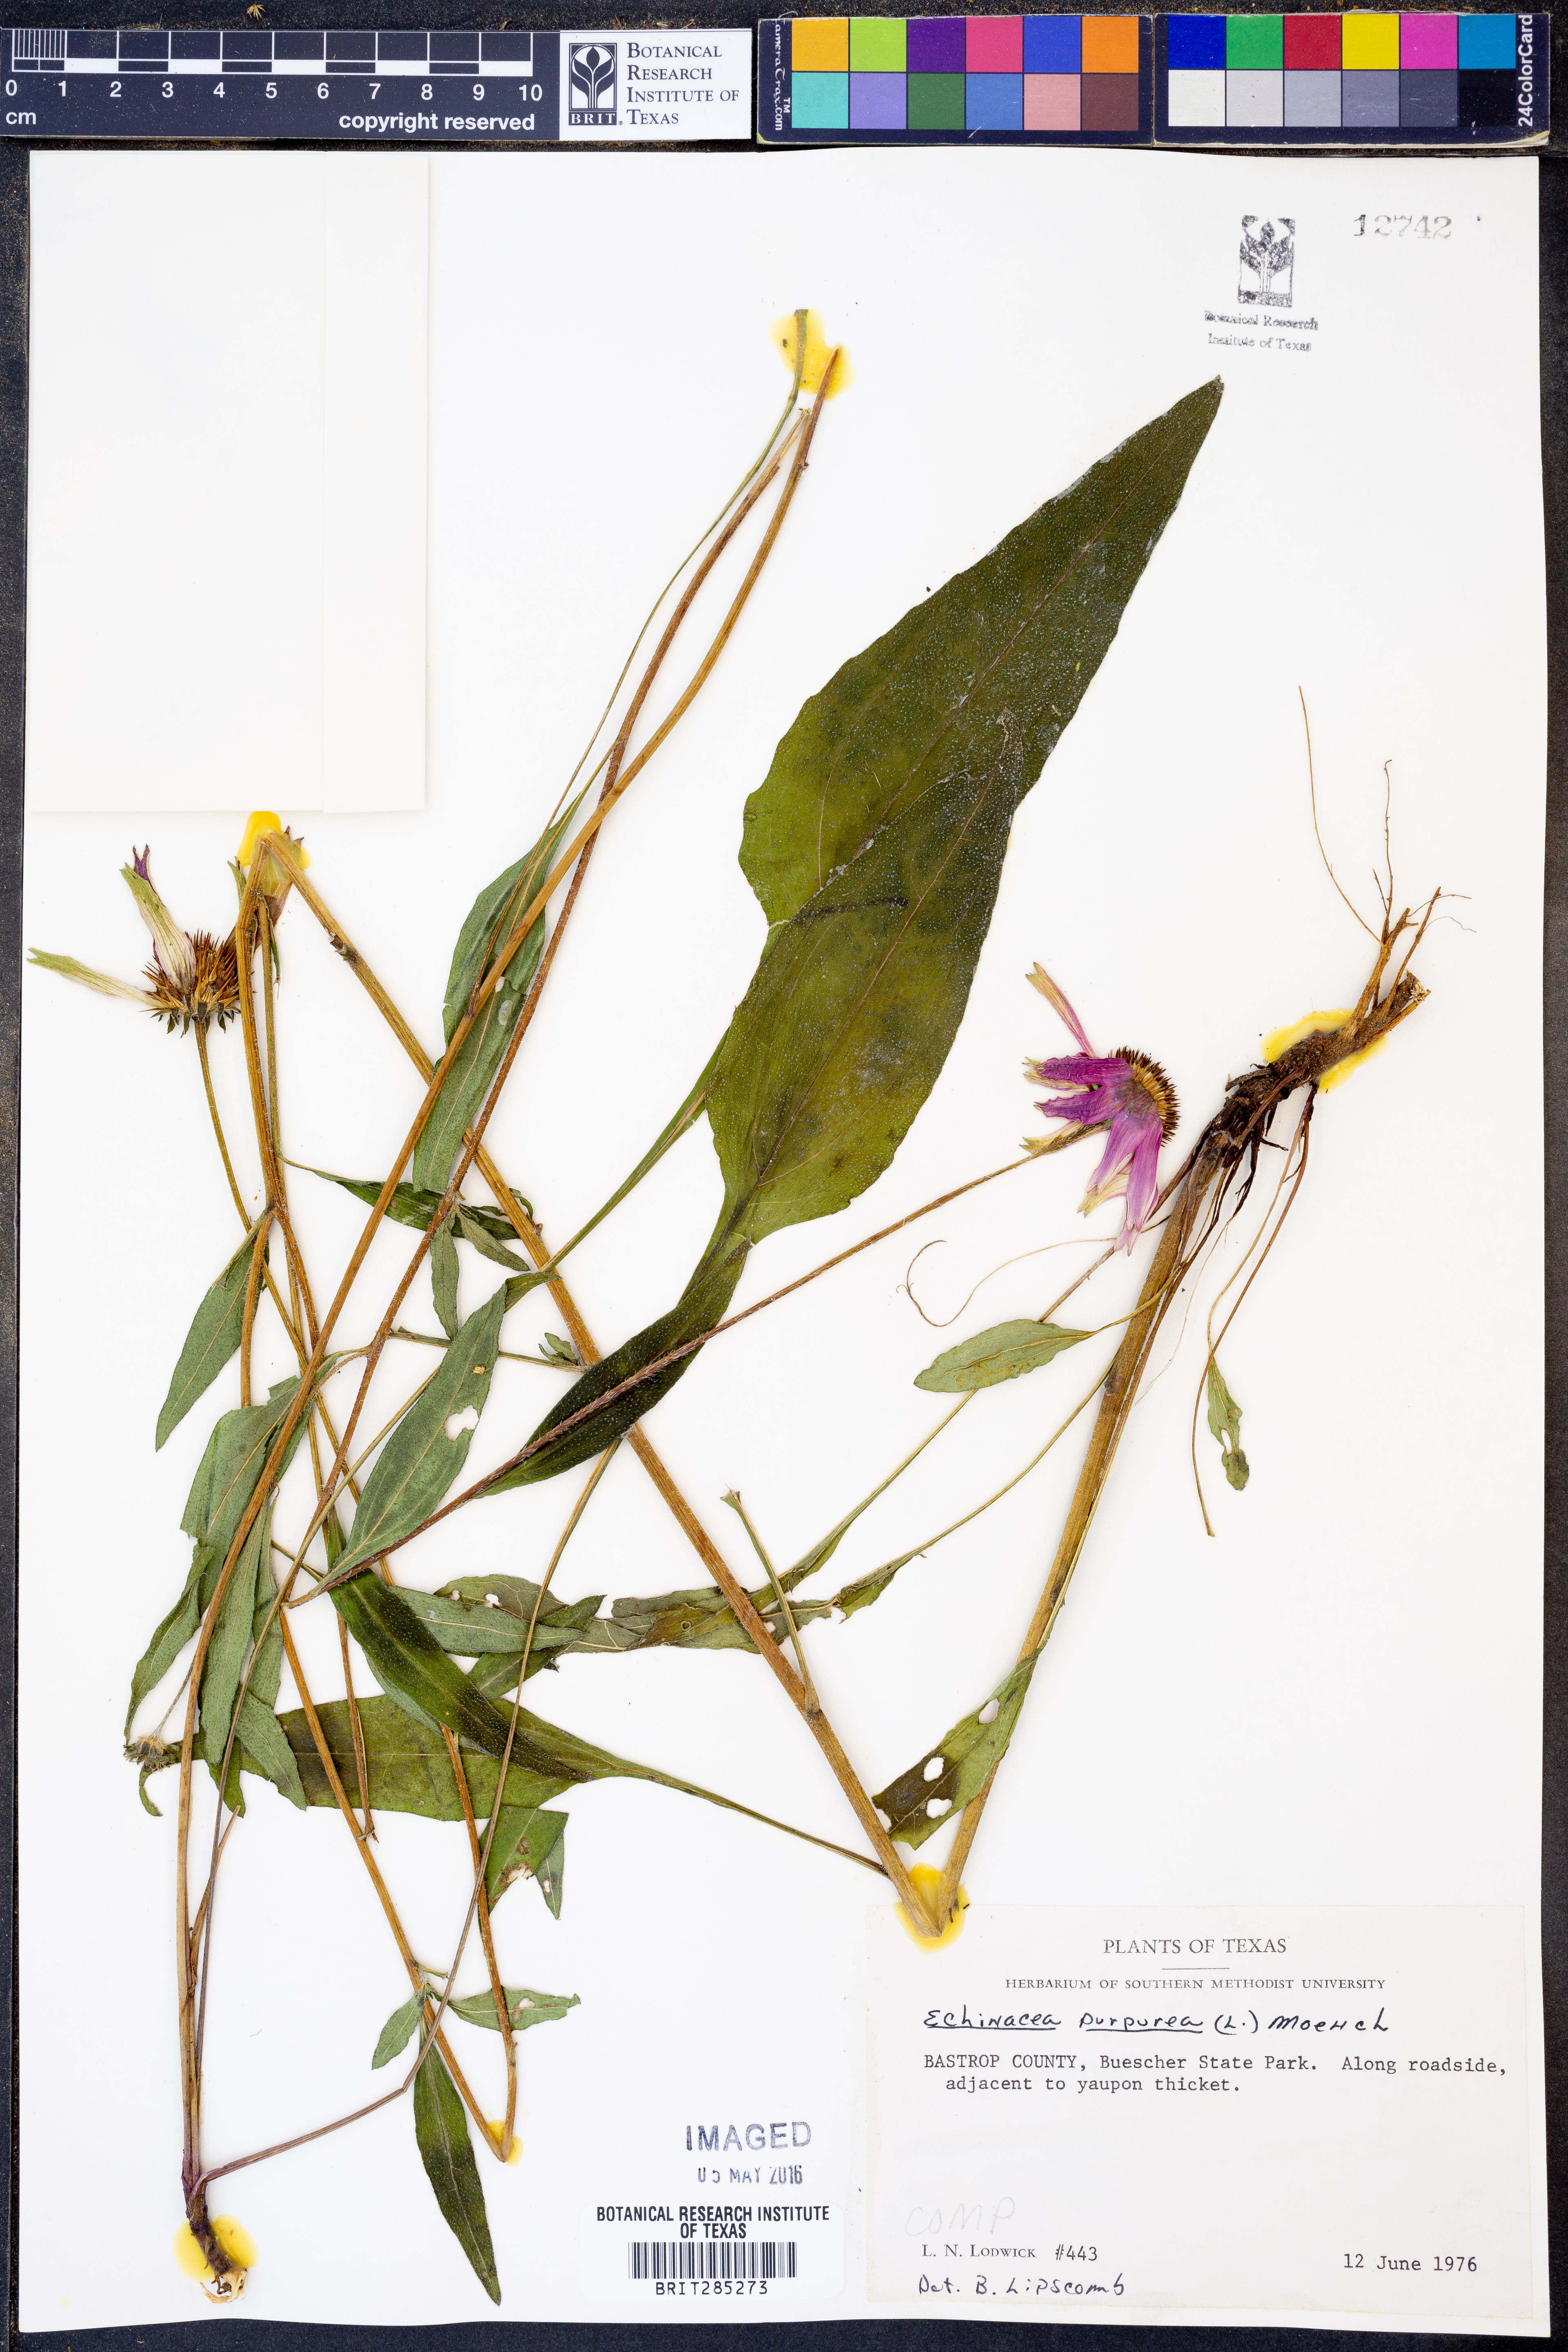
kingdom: Plantae
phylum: Tracheophyta
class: Magnoliopsida
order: Asterales
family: Asteraceae
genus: Echinacea
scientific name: Echinacea purpurea
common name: Broad-leaved purple coneflower
